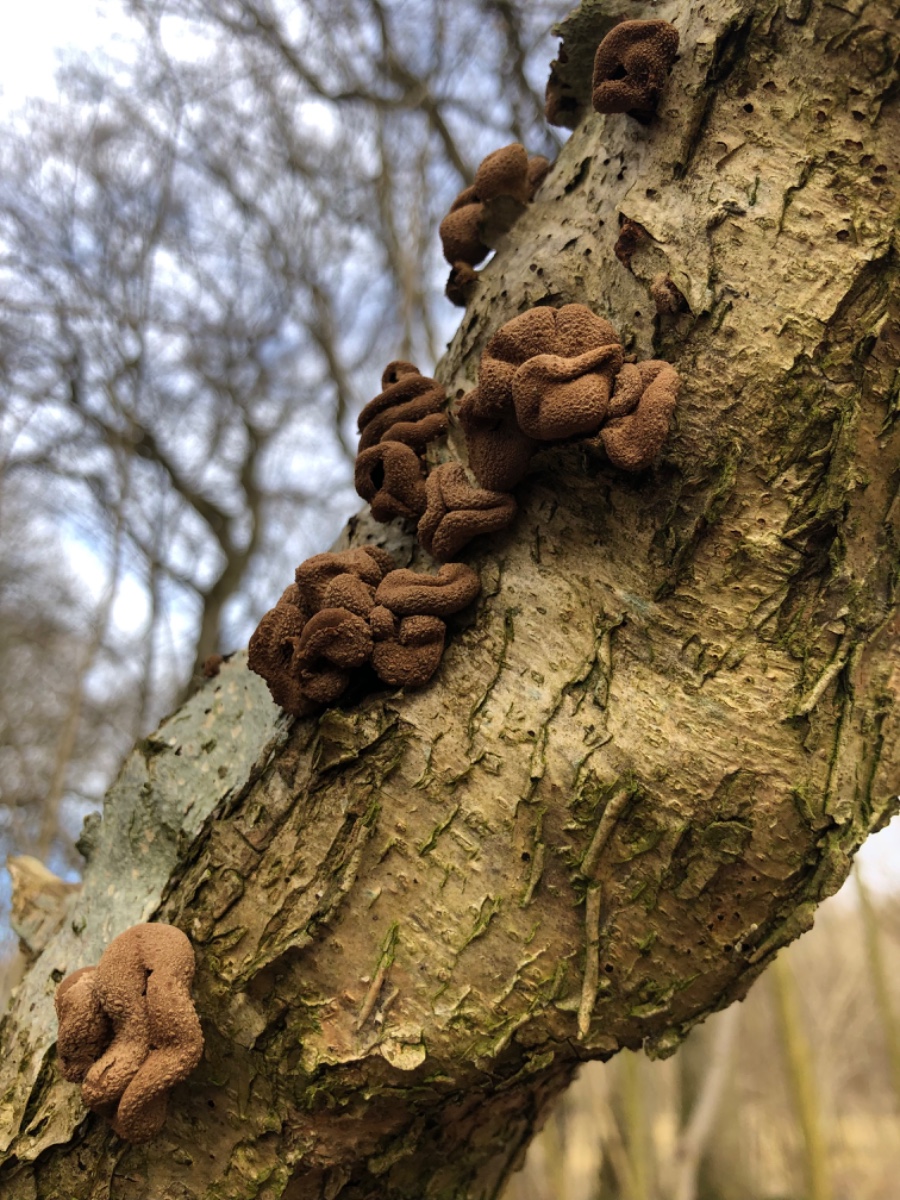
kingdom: Fungi
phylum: Ascomycota
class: Leotiomycetes
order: Helotiales
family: Cenangiaceae
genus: Encoelia
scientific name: Encoelia furfuracea
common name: hassel-læderskive
